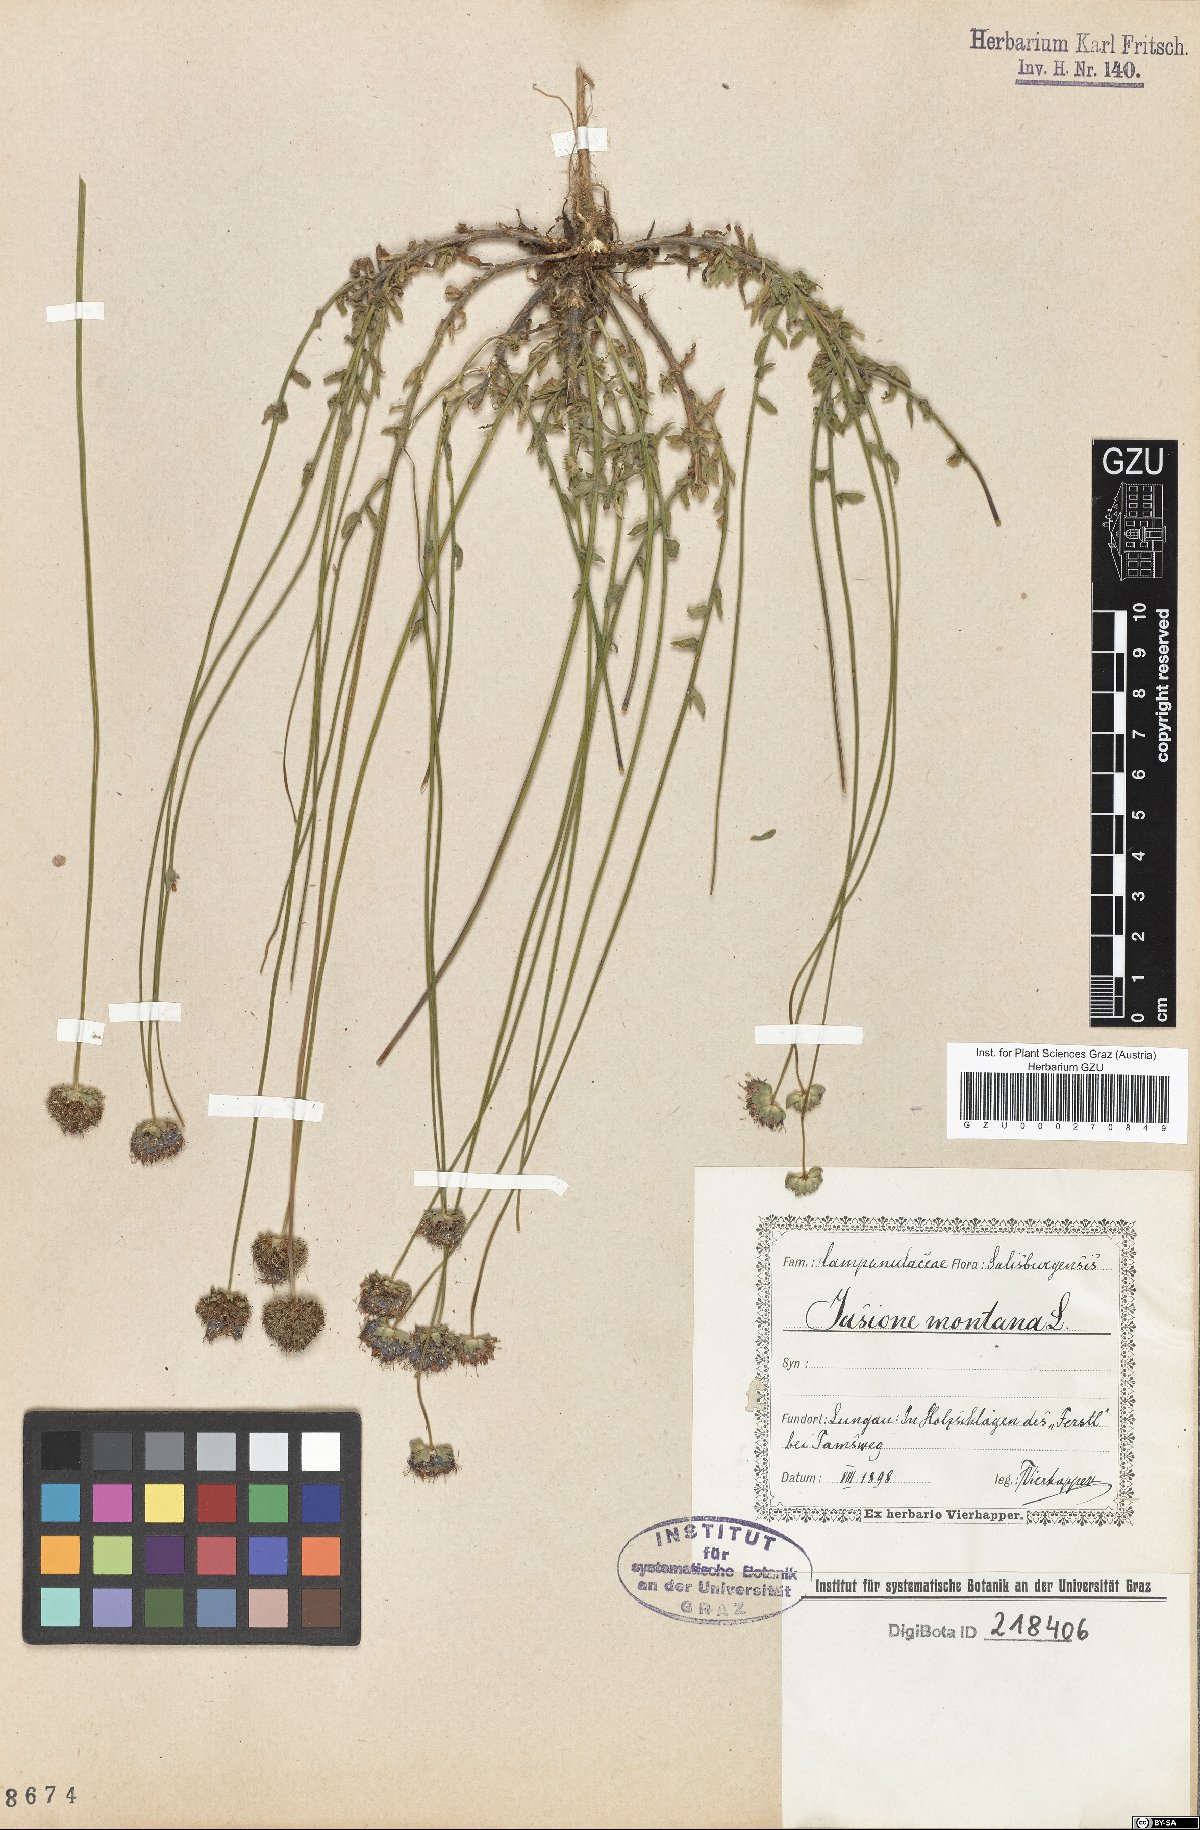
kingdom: Plantae
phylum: Tracheophyta
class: Magnoliopsida
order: Asterales
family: Campanulaceae
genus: Jasione
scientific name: Jasione montana
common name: Sheep's-bit
